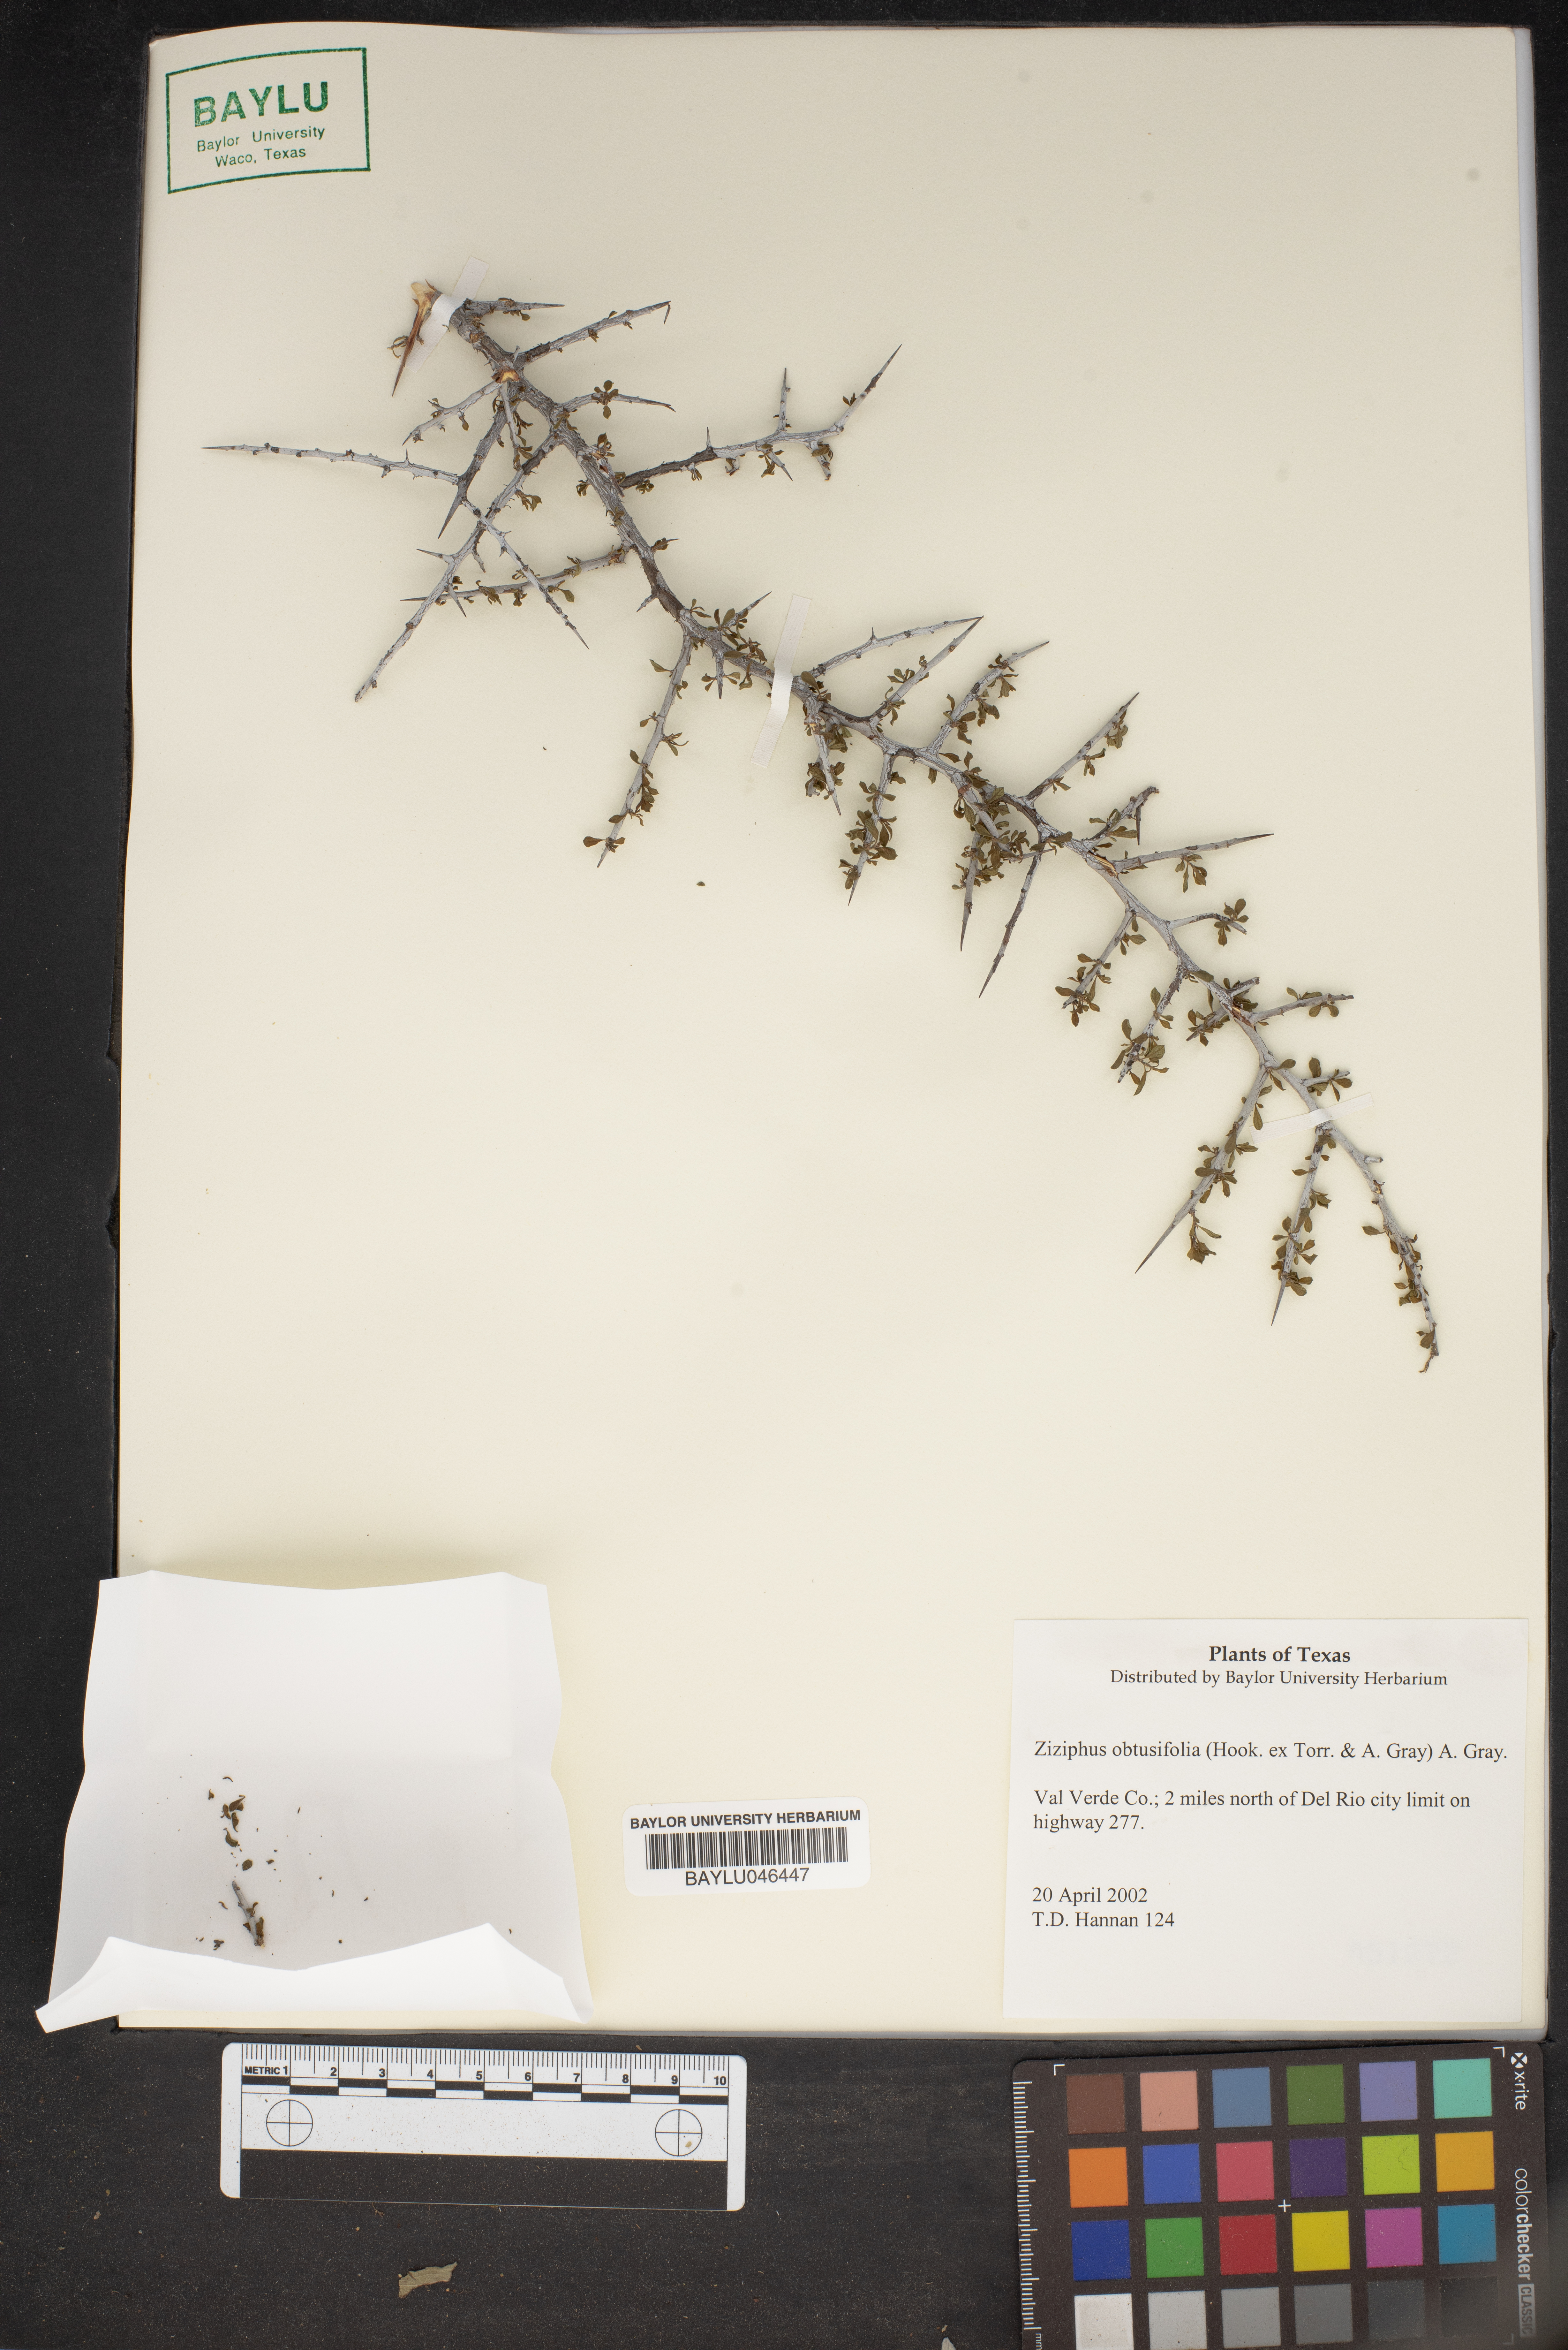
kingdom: Plantae
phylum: Tracheophyta
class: Magnoliopsida
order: Rosales
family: Rhamnaceae
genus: Sarcomphalus
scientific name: Sarcomphalus obtusifolius
